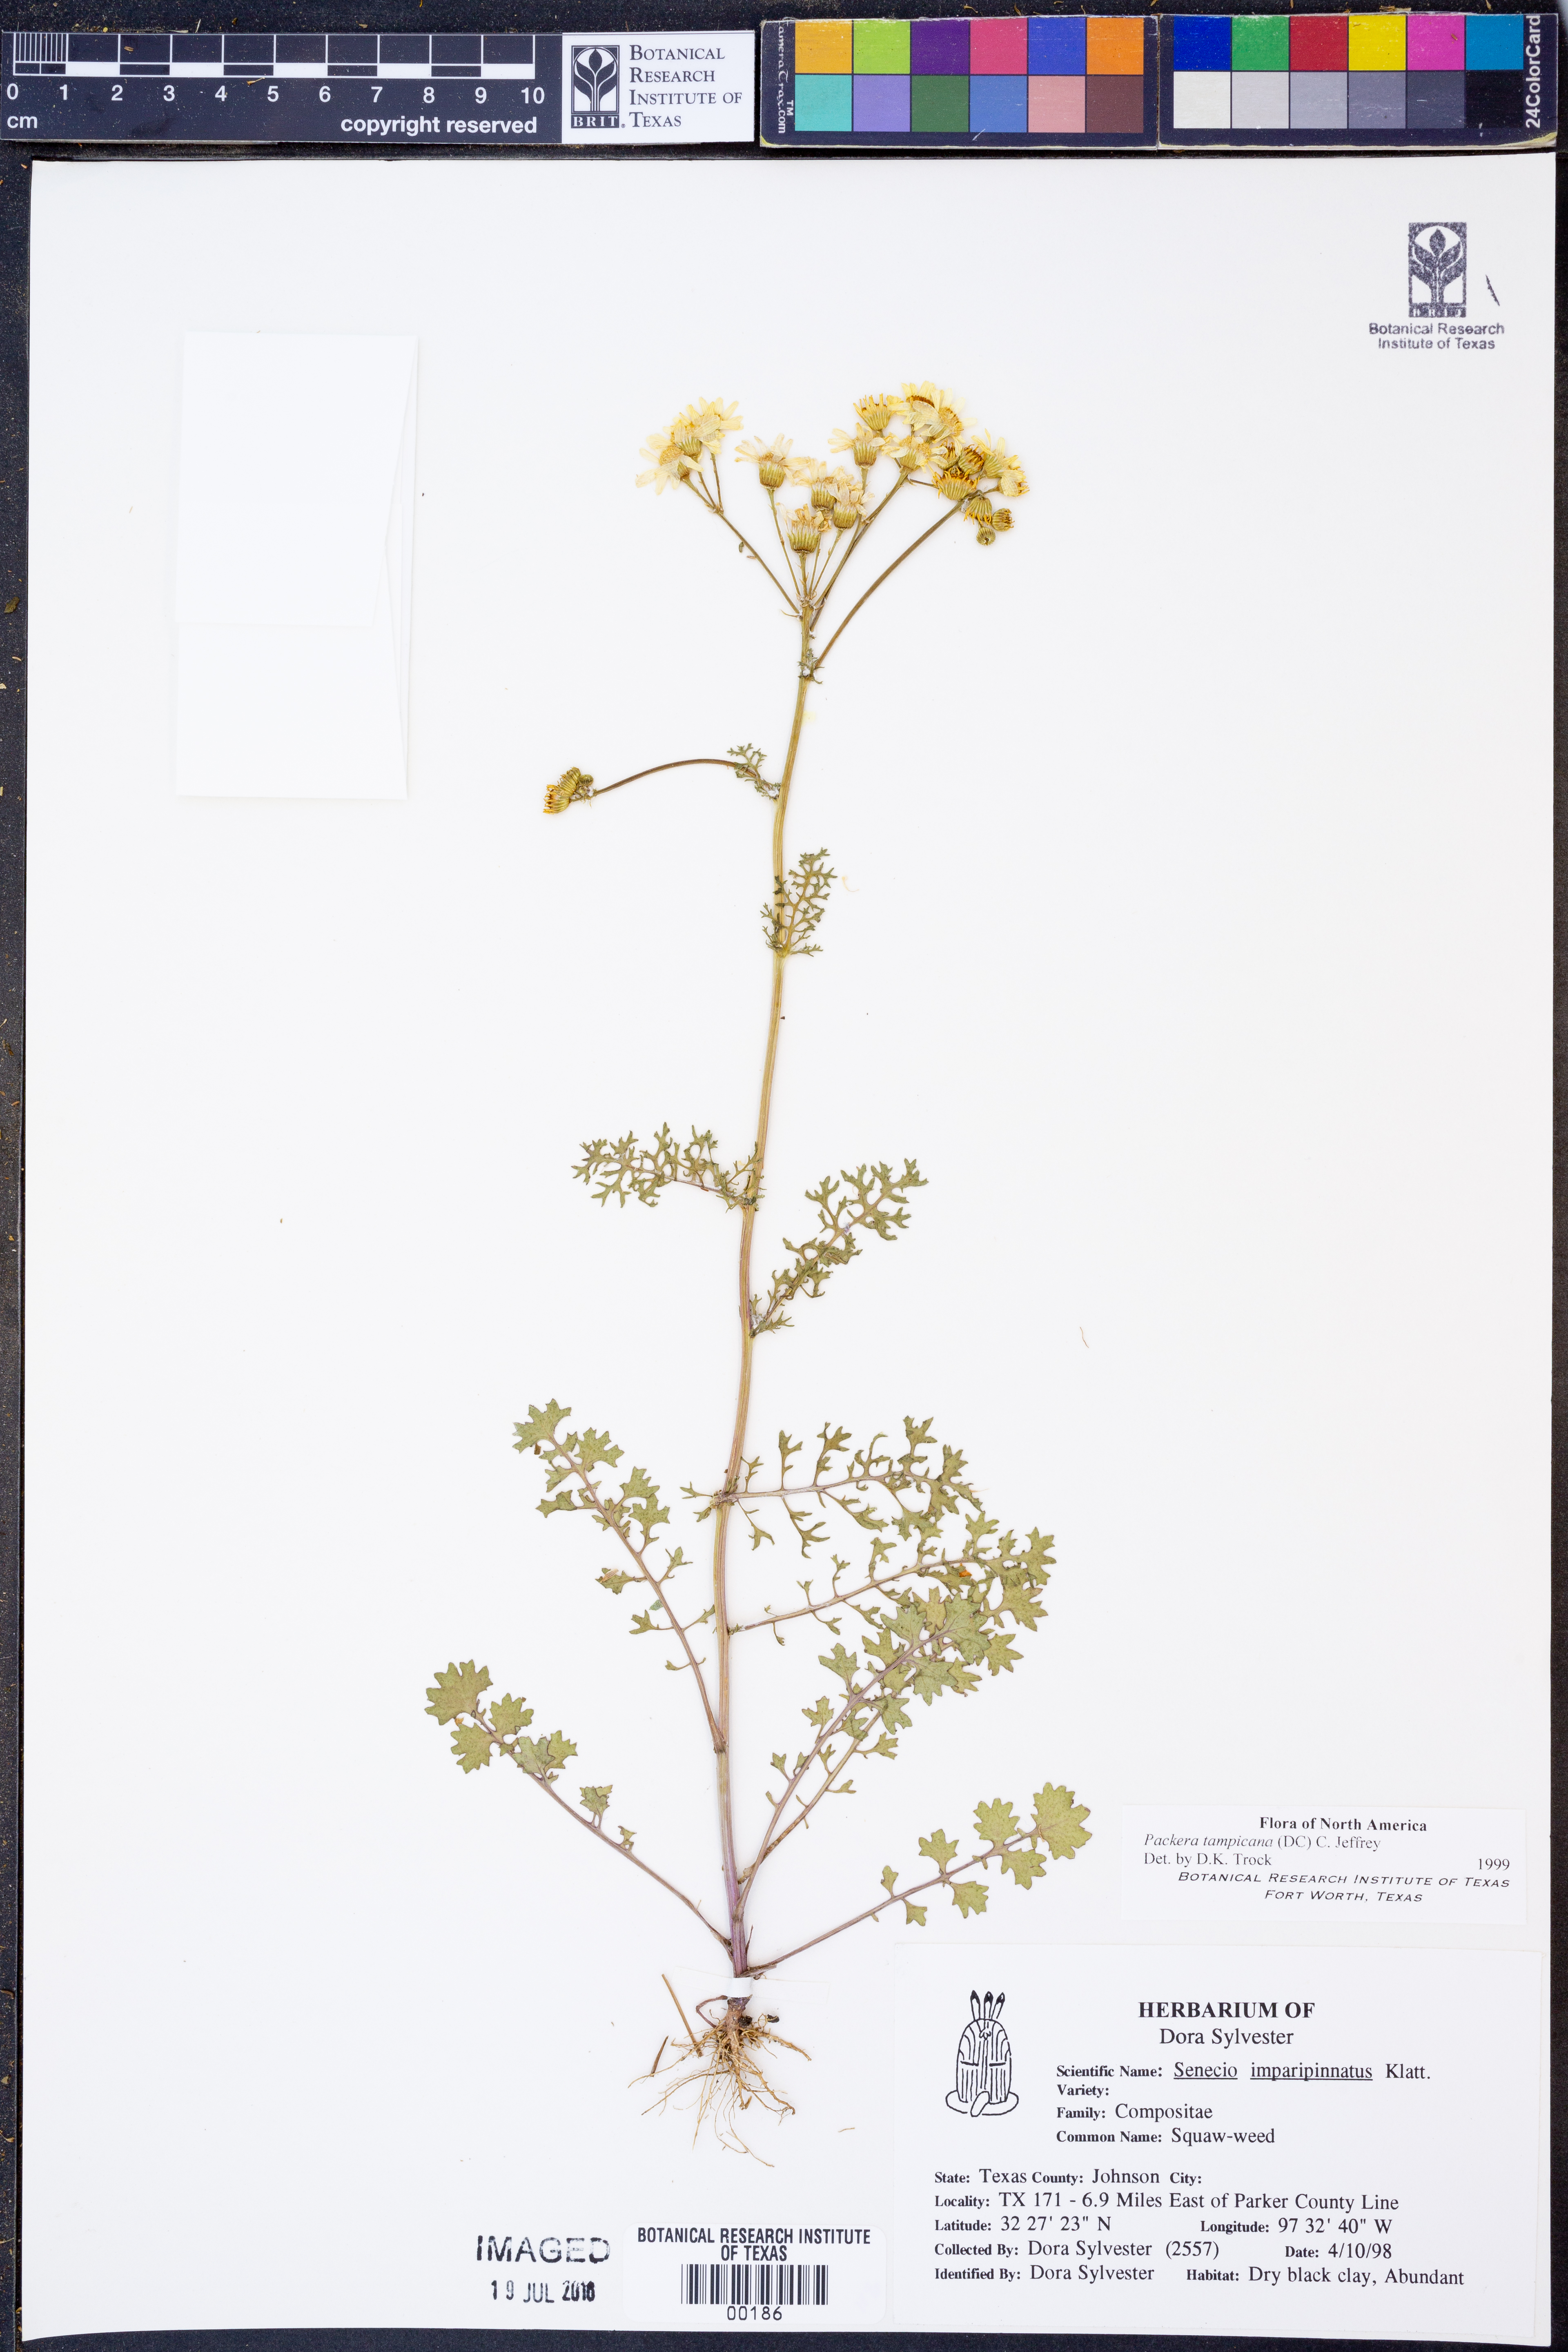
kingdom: Plantae
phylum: Tracheophyta
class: Magnoliopsida
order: Asterales
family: Asteraceae
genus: Packera
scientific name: Packera tampicana
